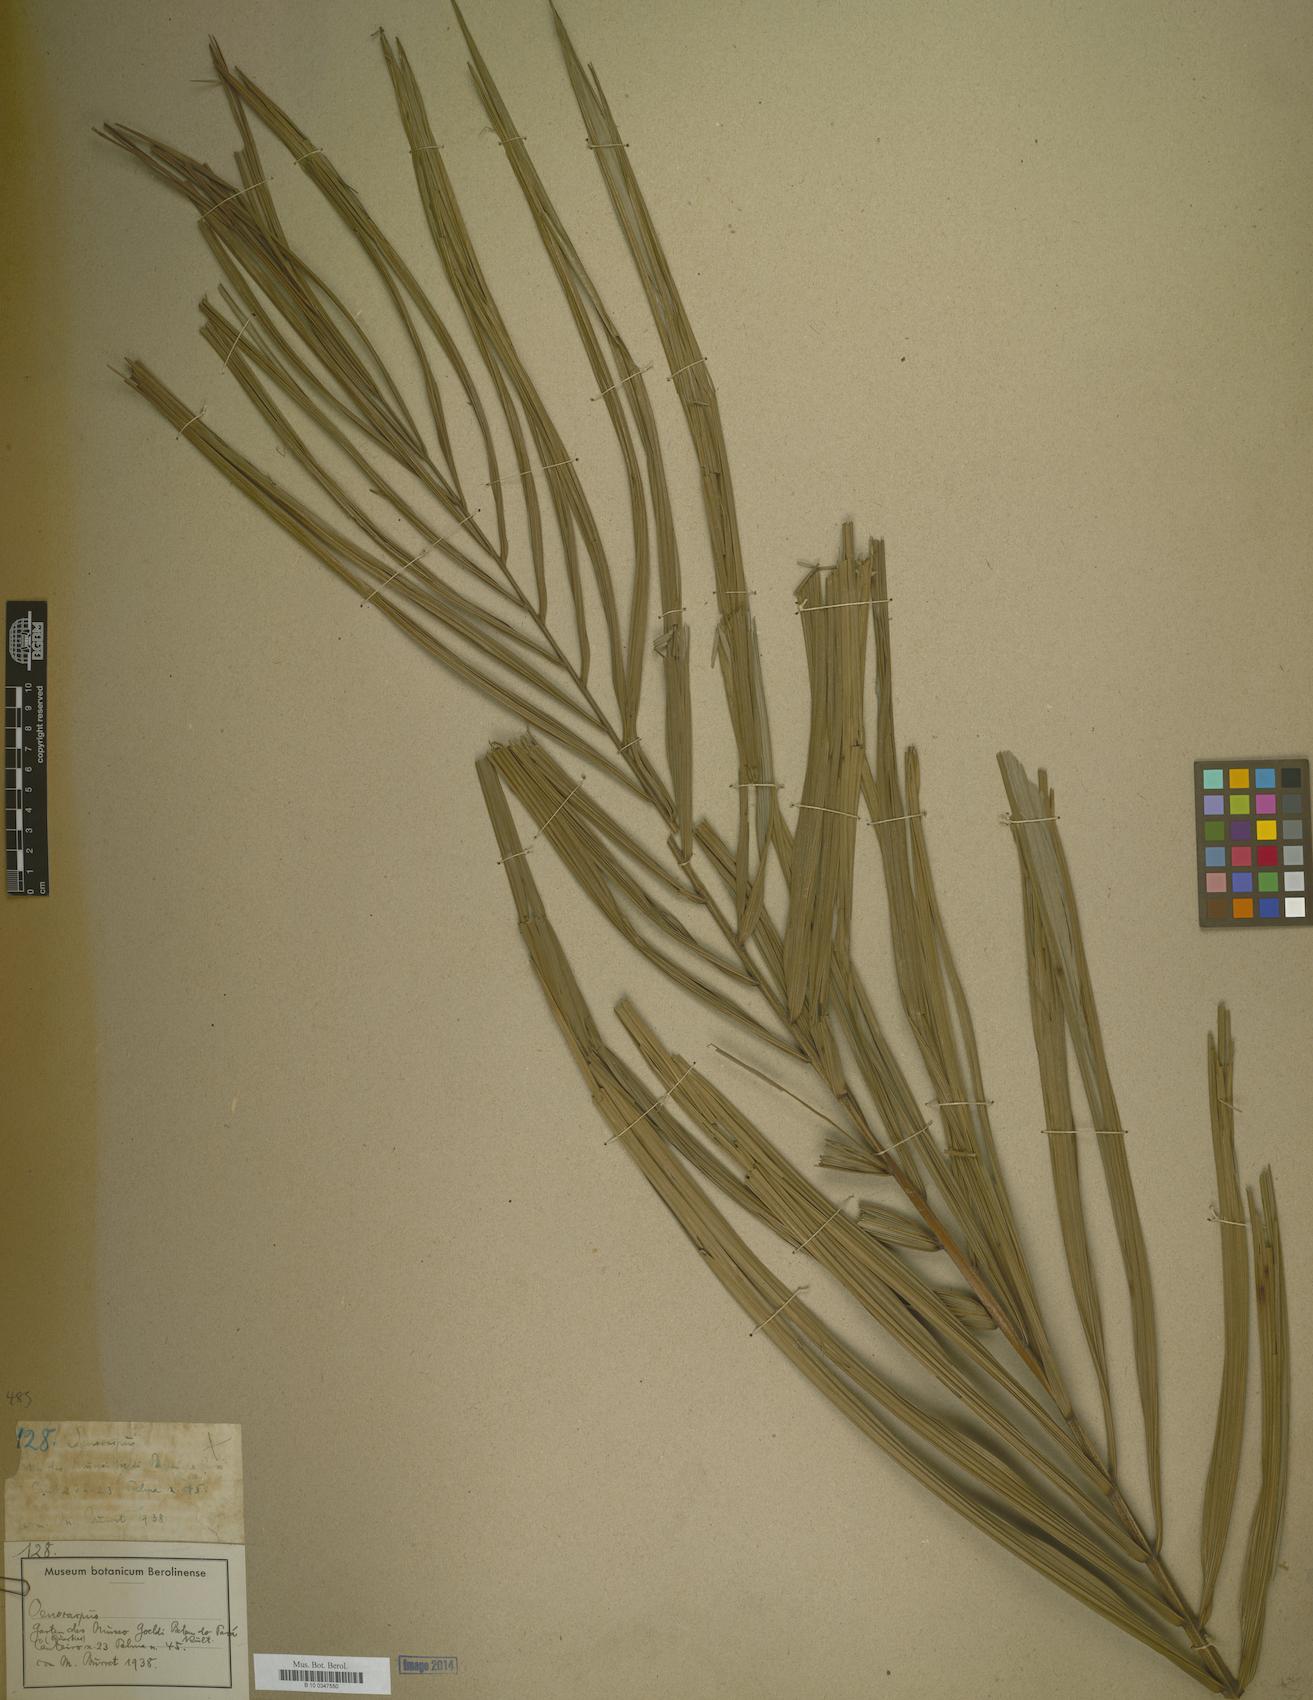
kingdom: Plantae
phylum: Tracheophyta
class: Liliopsida
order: Arecales
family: Arecaceae
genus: Oenocarpus
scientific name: Oenocarpus
